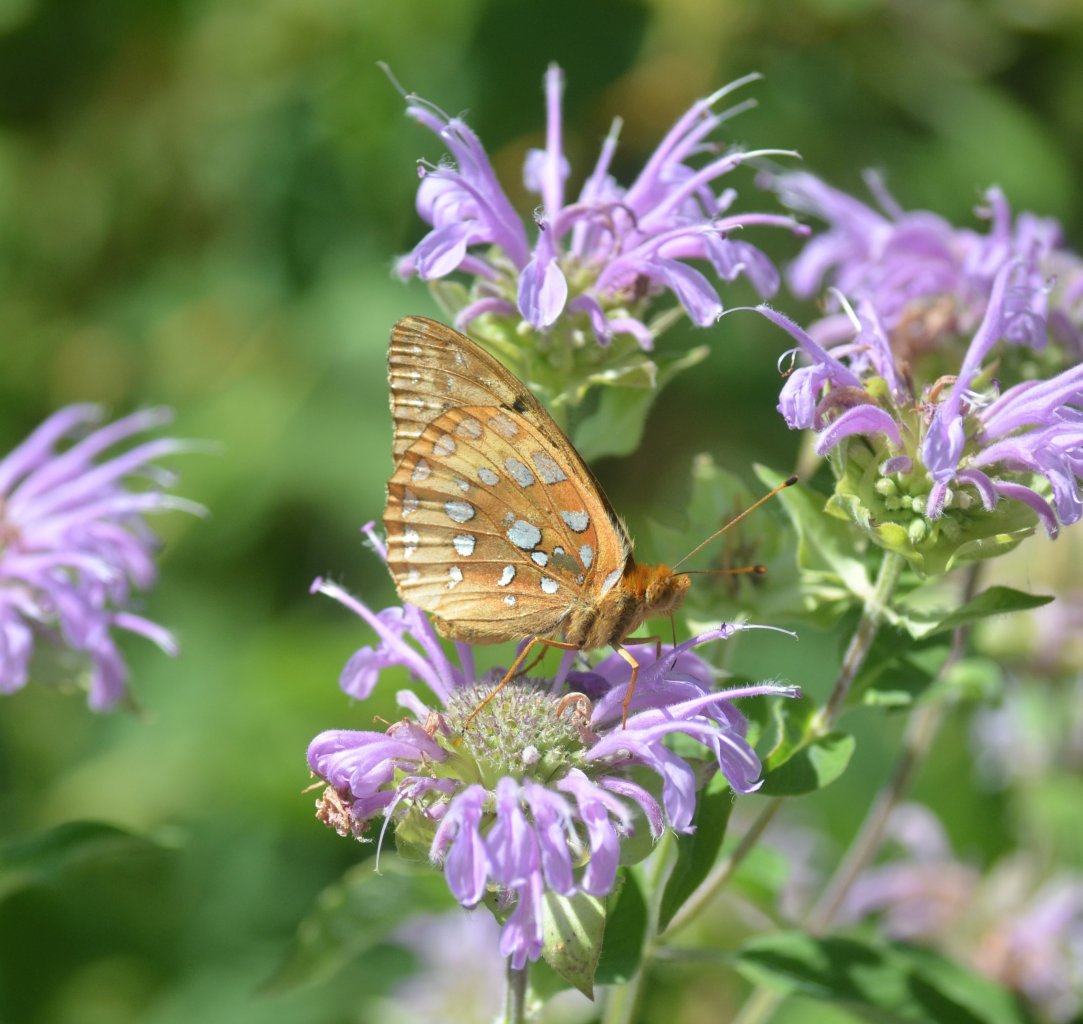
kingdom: Animalia
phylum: Arthropoda
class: Insecta
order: Lepidoptera
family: Nymphalidae
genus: Speyeria
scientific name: Speyeria cybele
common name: Great Spangled Fritillary
